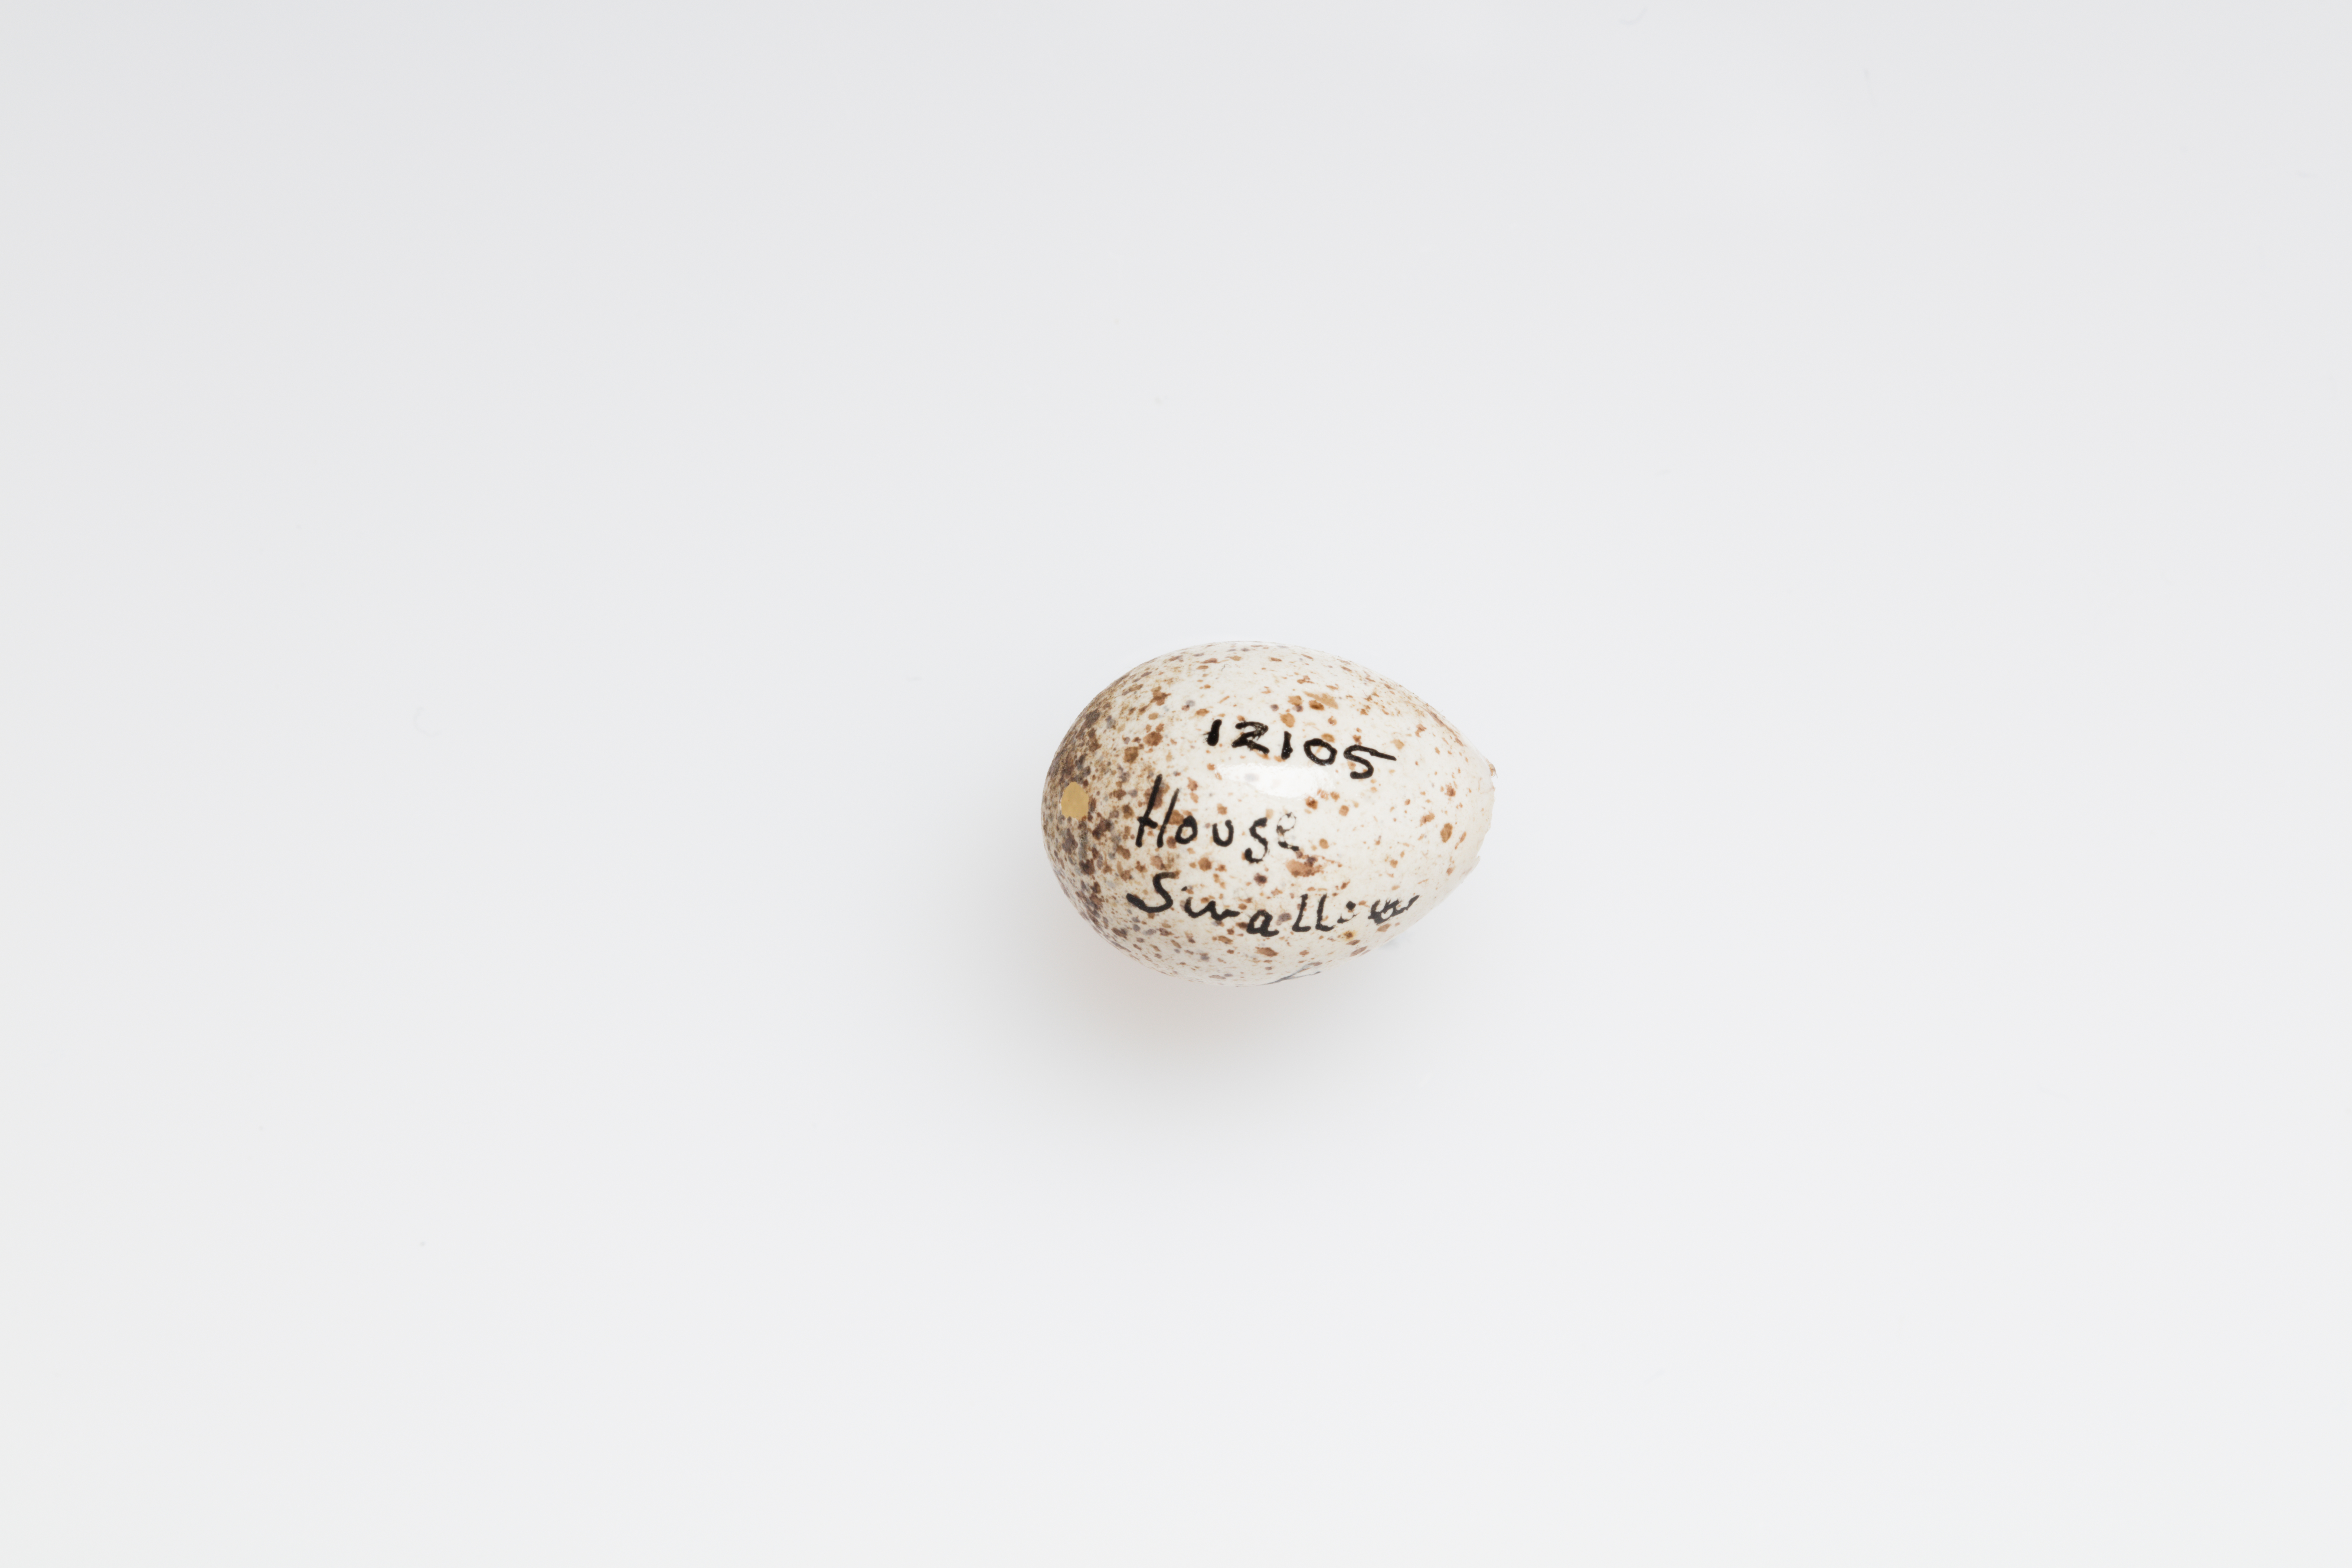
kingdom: Animalia
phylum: Chordata
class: Aves
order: Passeriformes
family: Hirundinidae
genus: Hirundo
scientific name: Hirundo neoxena
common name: Welcome swallow
